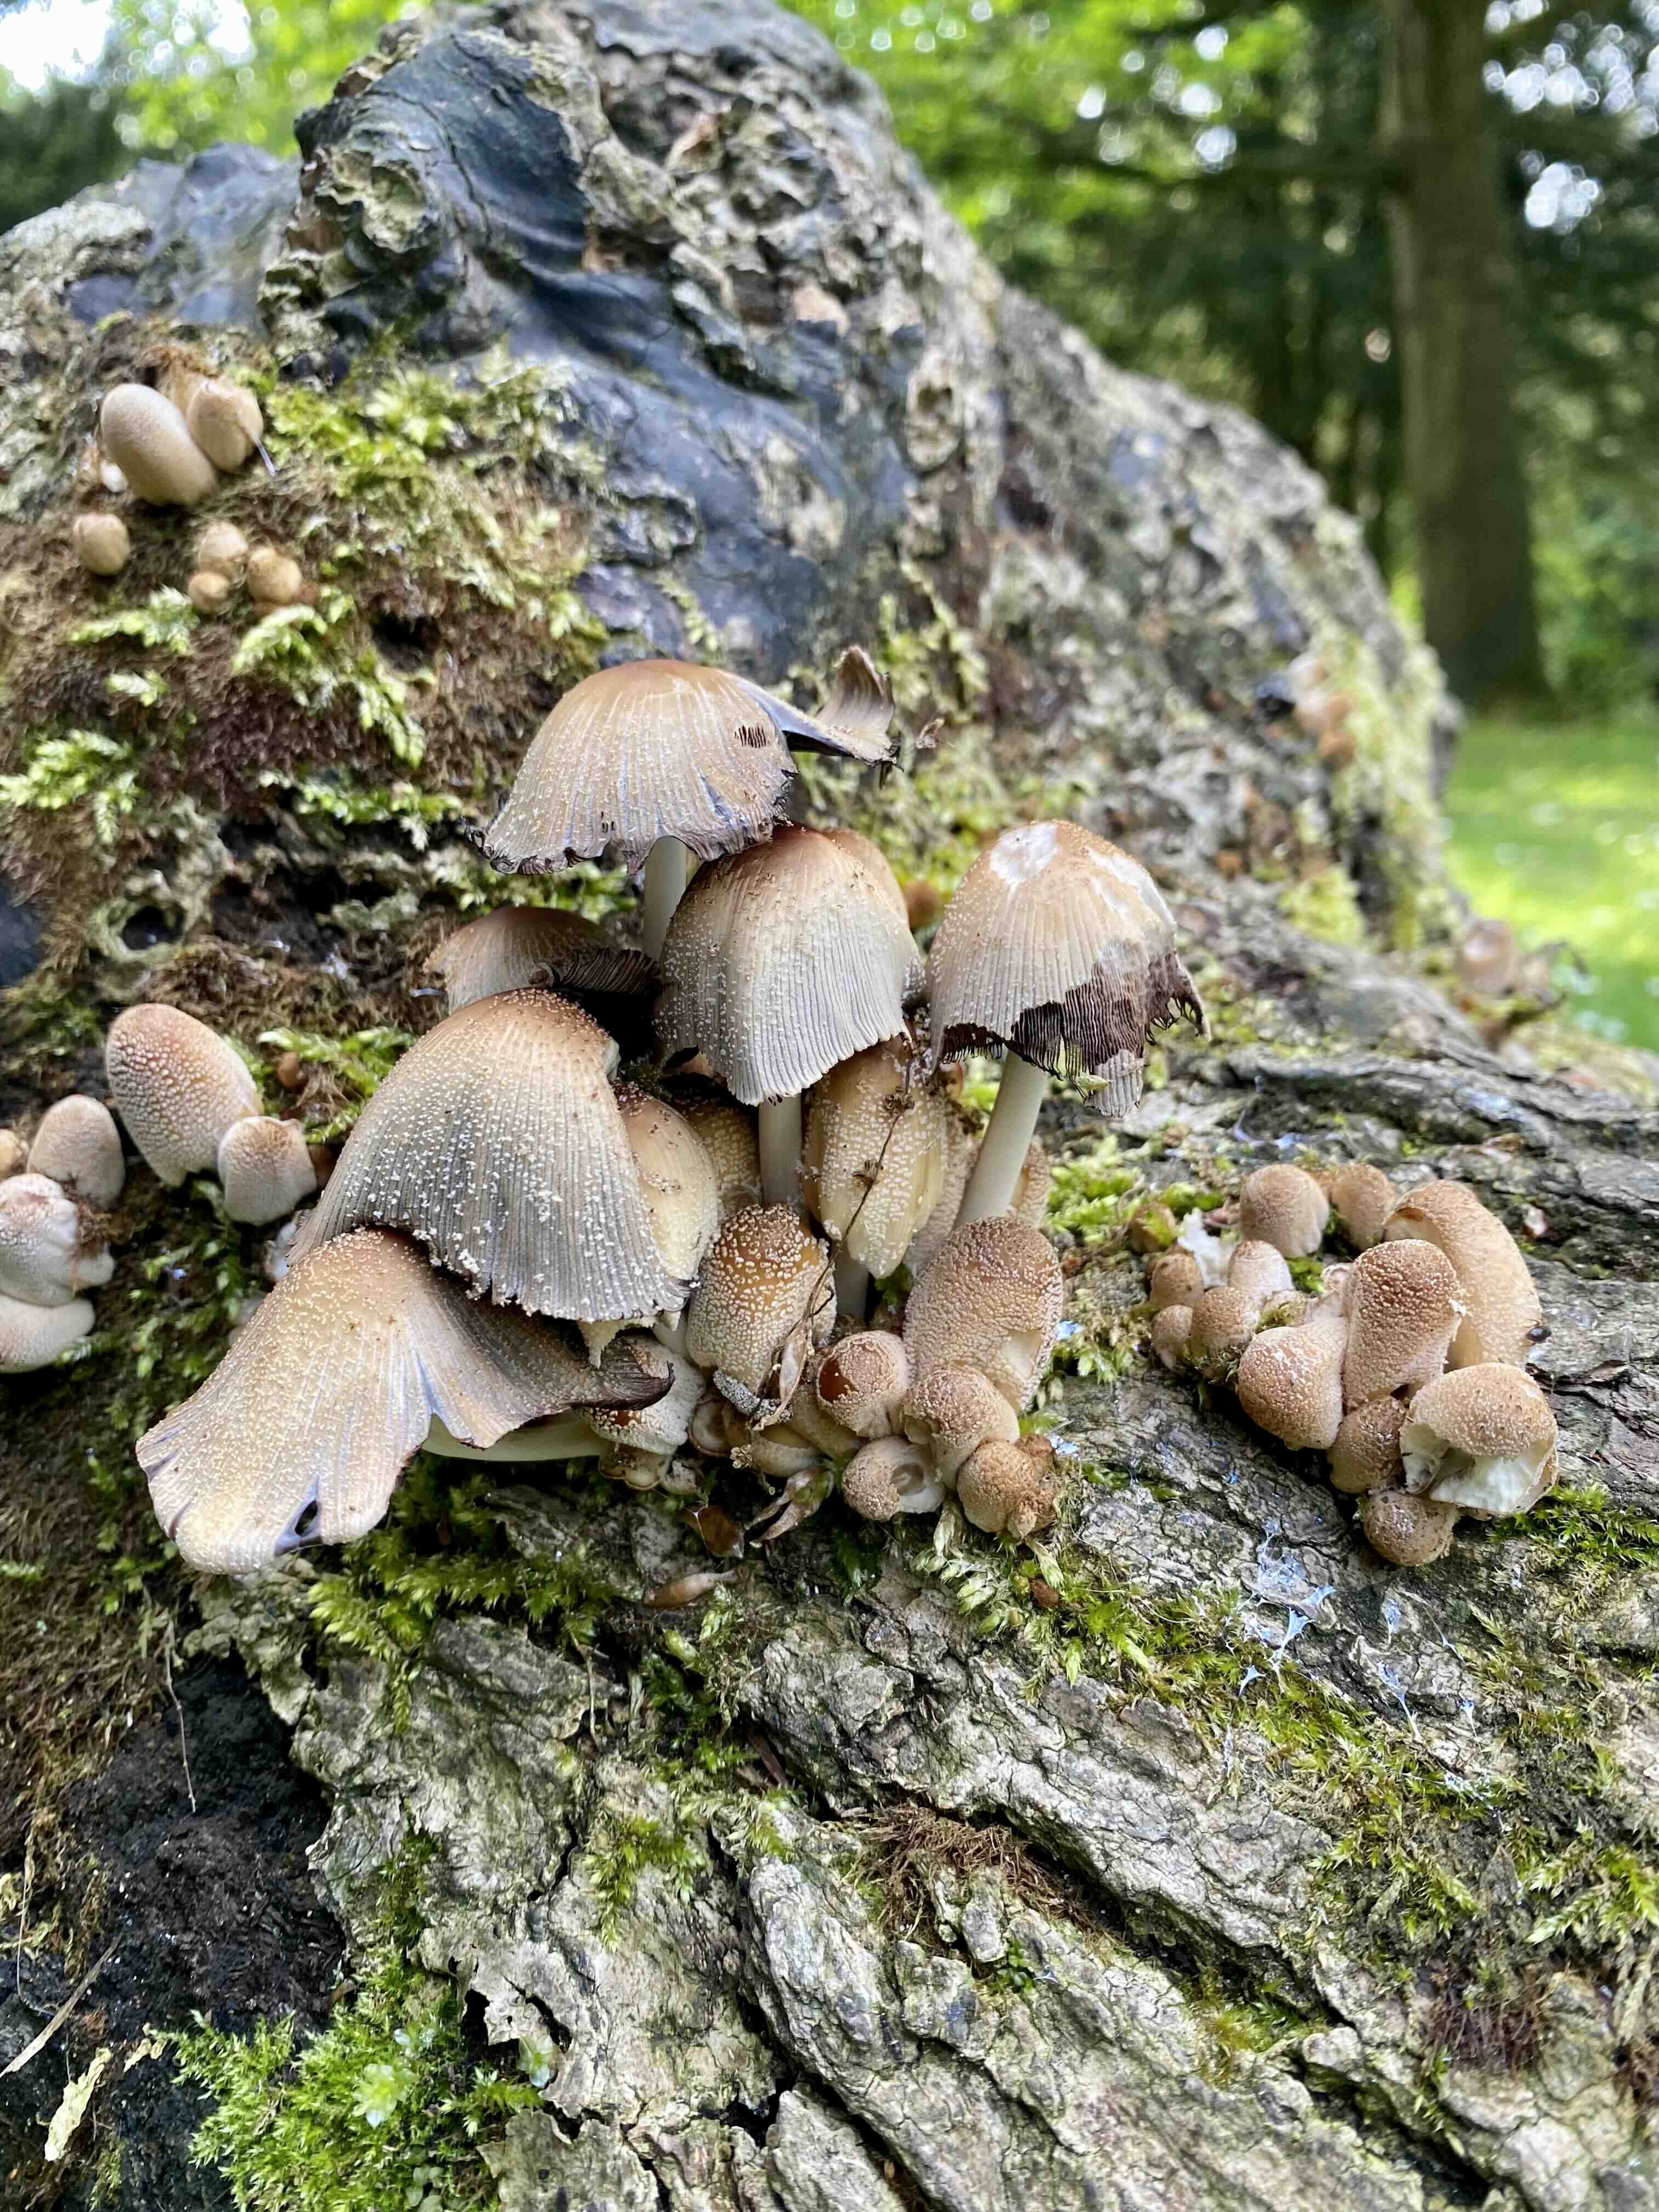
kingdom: Fungi
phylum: Basidiomycota
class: Agaricomycetes
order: Agaricales
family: Psathyrellaceae
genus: Coprinellus
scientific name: Coprinellus domesticus
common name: hus-blækhat
